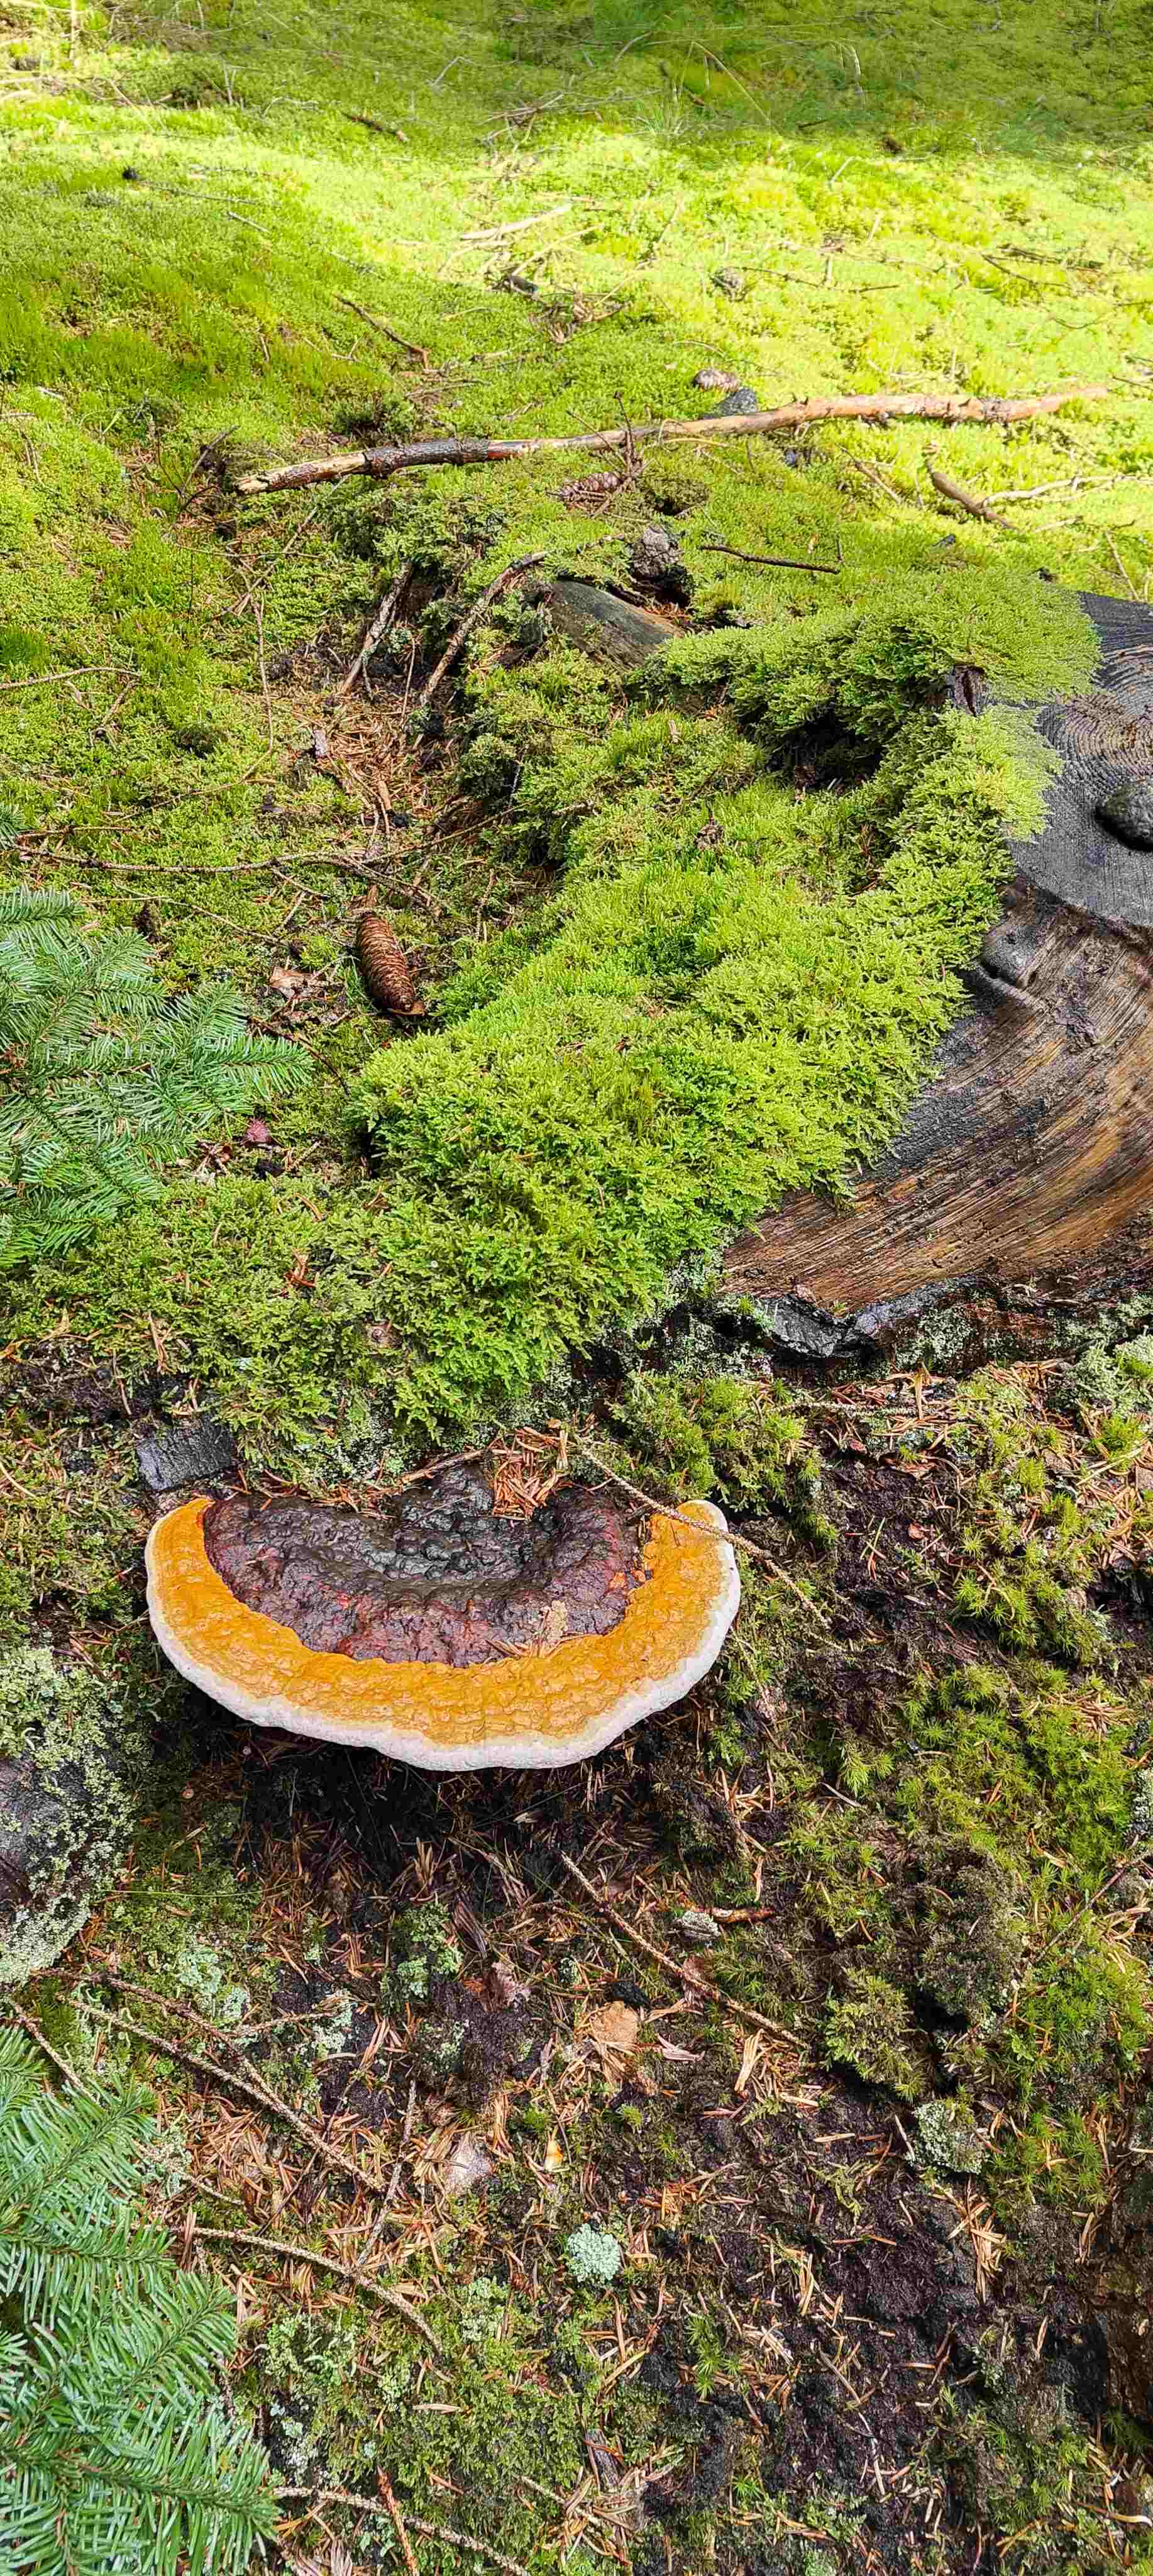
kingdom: Fungi
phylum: Basidiomycota
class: Agaricomycetes
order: Polyporales
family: Fomitopsidaceae
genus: Fomitopsis
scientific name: Fomitopsis pinicola
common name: randbæltet hovporesvamp
